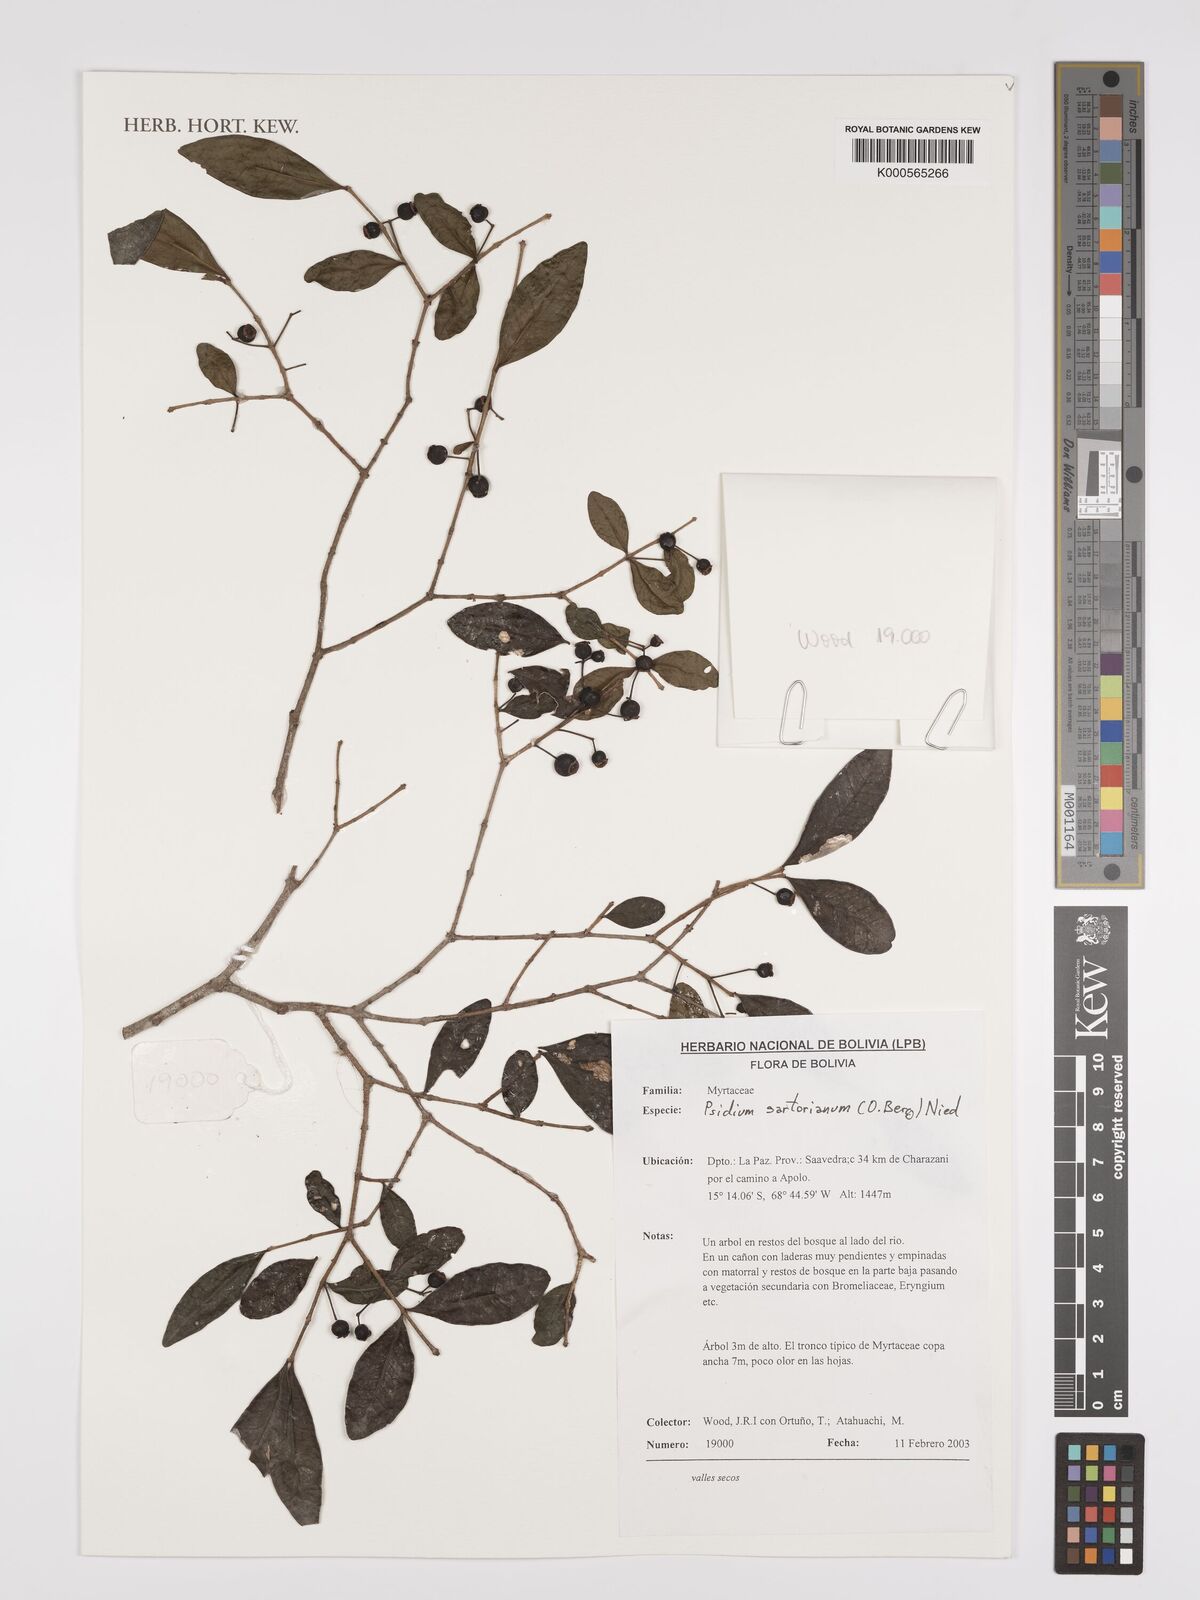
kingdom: Plantae
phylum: Tracheophyta
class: Magnoliopsida
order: Myrtales
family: Myrtaceae
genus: Psidium
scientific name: Psidium sartorianum
